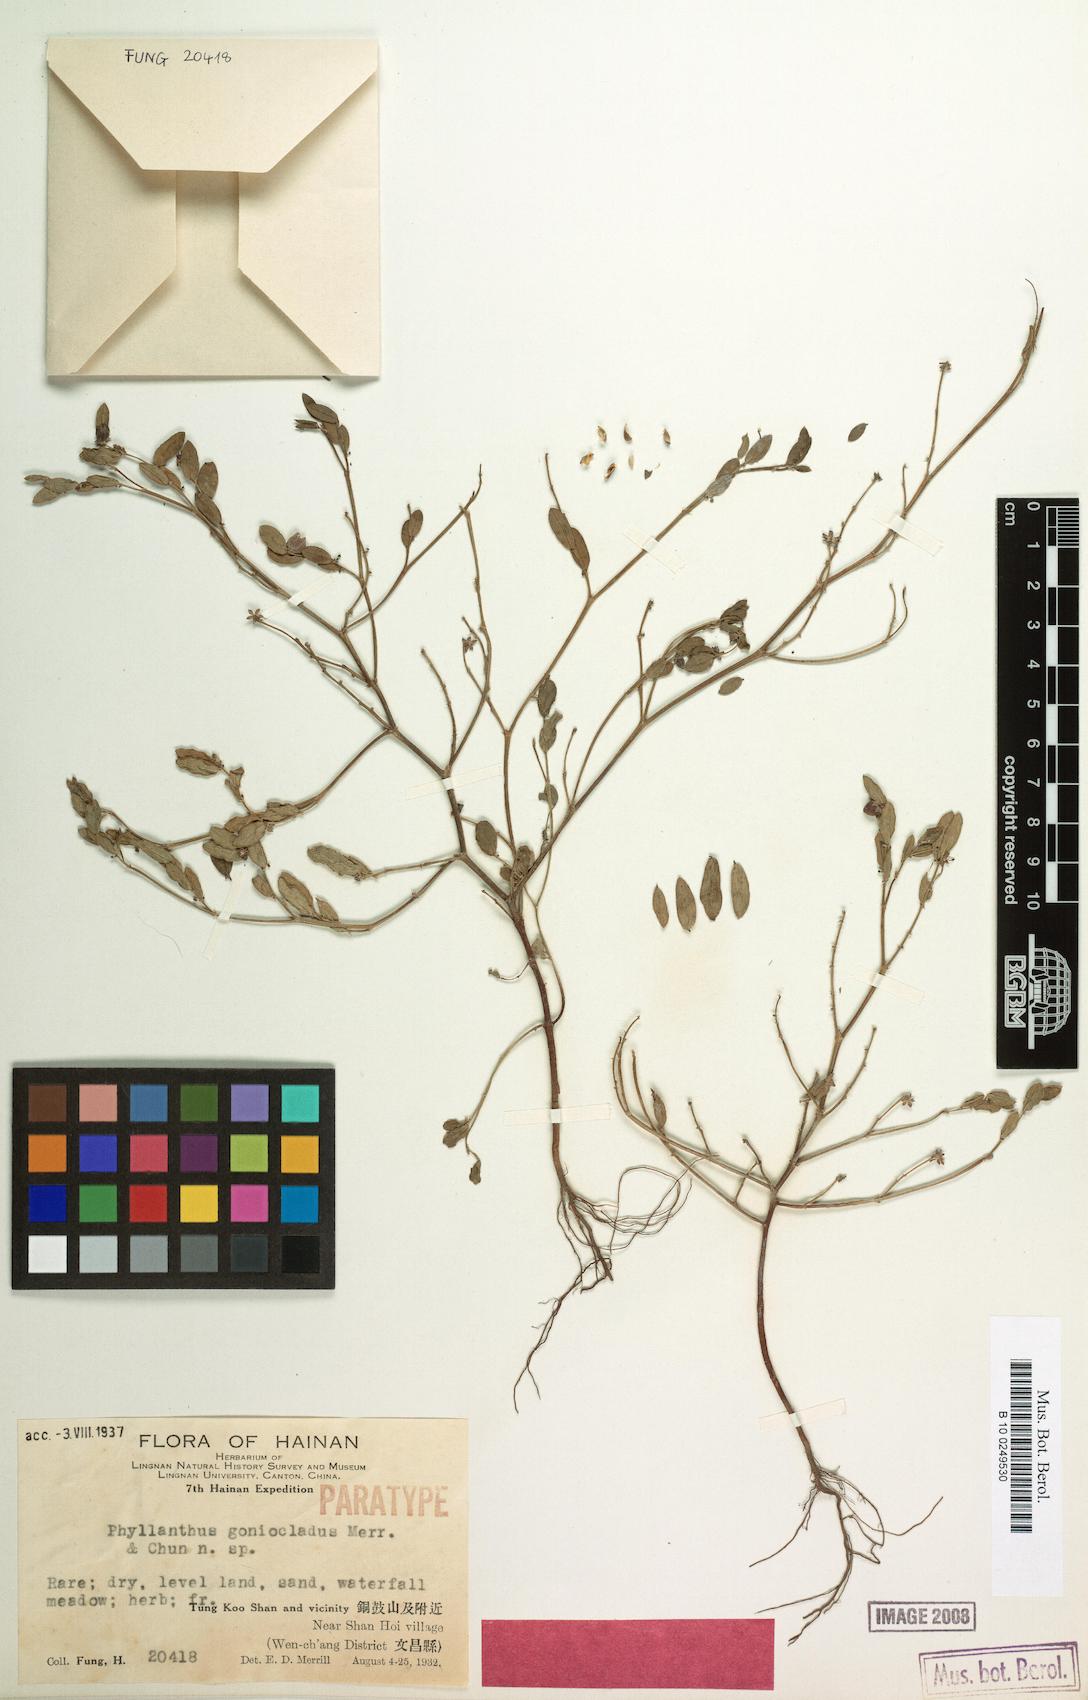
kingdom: Plantae
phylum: Tracheophyta
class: Magnoliopsida
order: Malpighiales
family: Phyllanthaceae
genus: Synostemon
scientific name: Synostemon bacciformis
